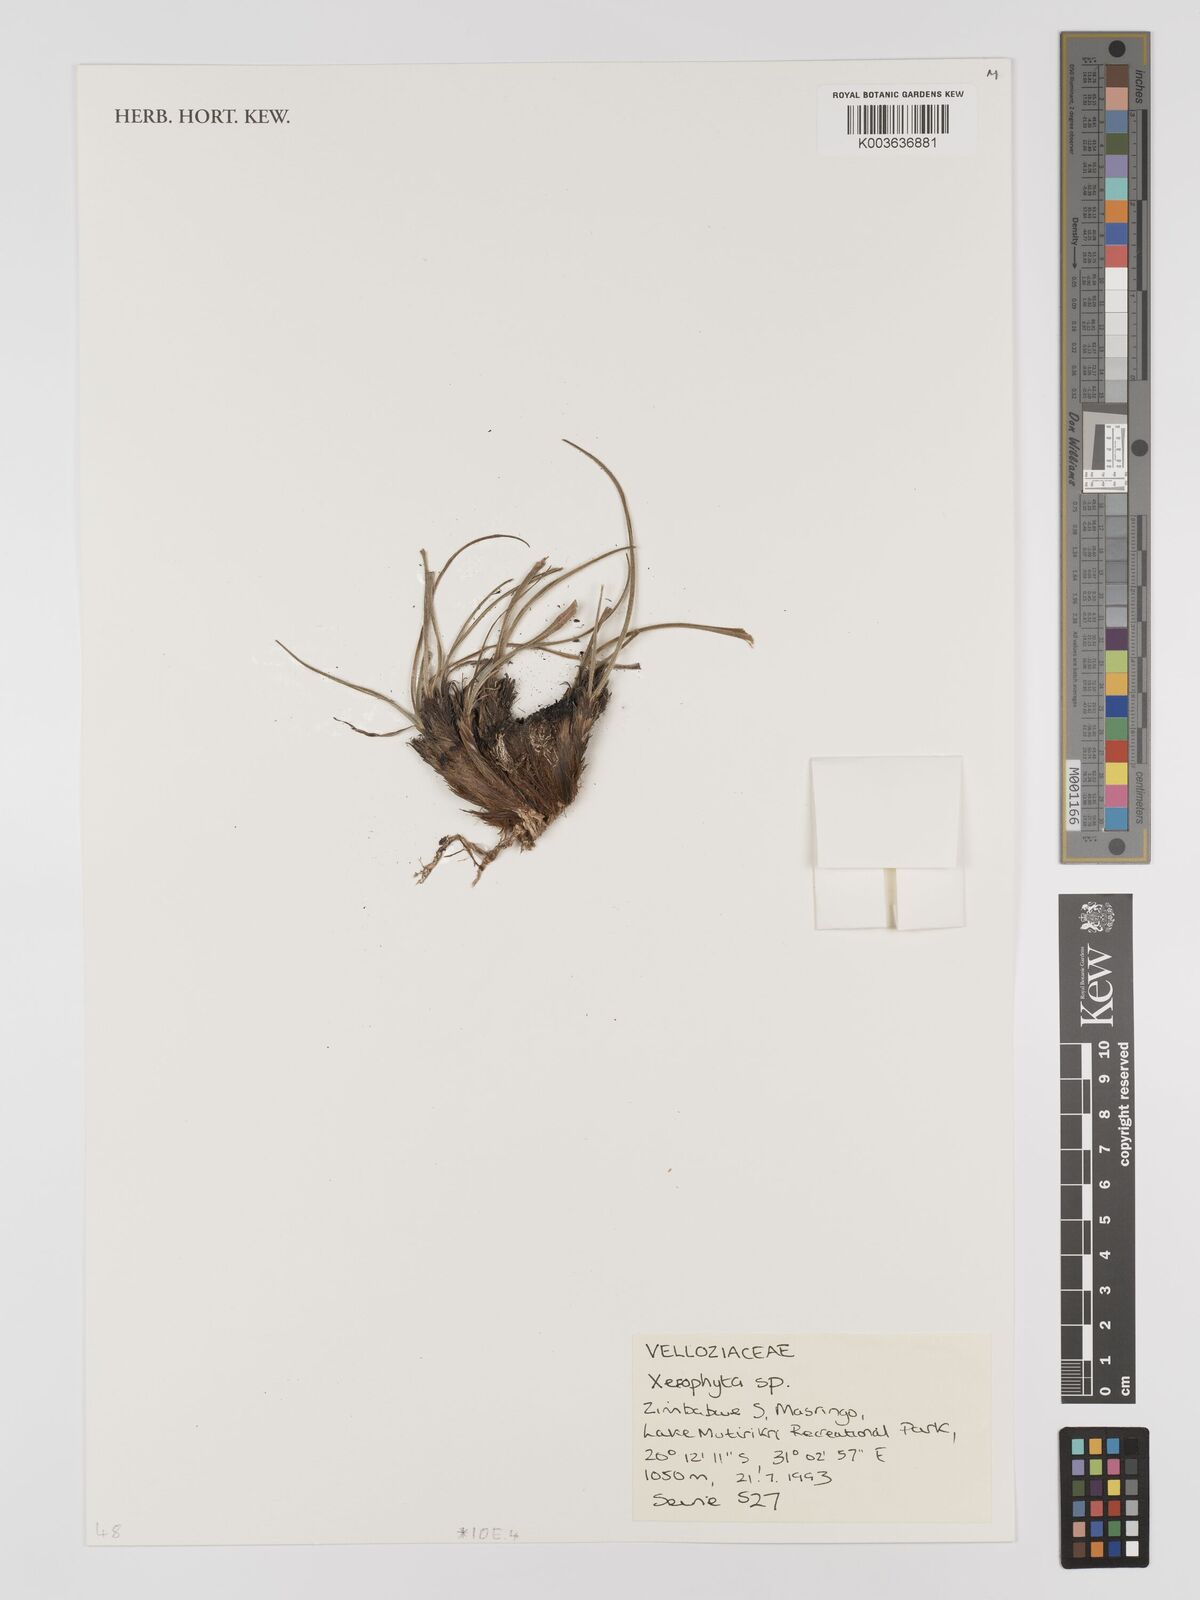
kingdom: Plantae
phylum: Tracheophyta
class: Liliopsida
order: Pandanales
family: Velloziaceae
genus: Xerophyta
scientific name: Xerophyta
